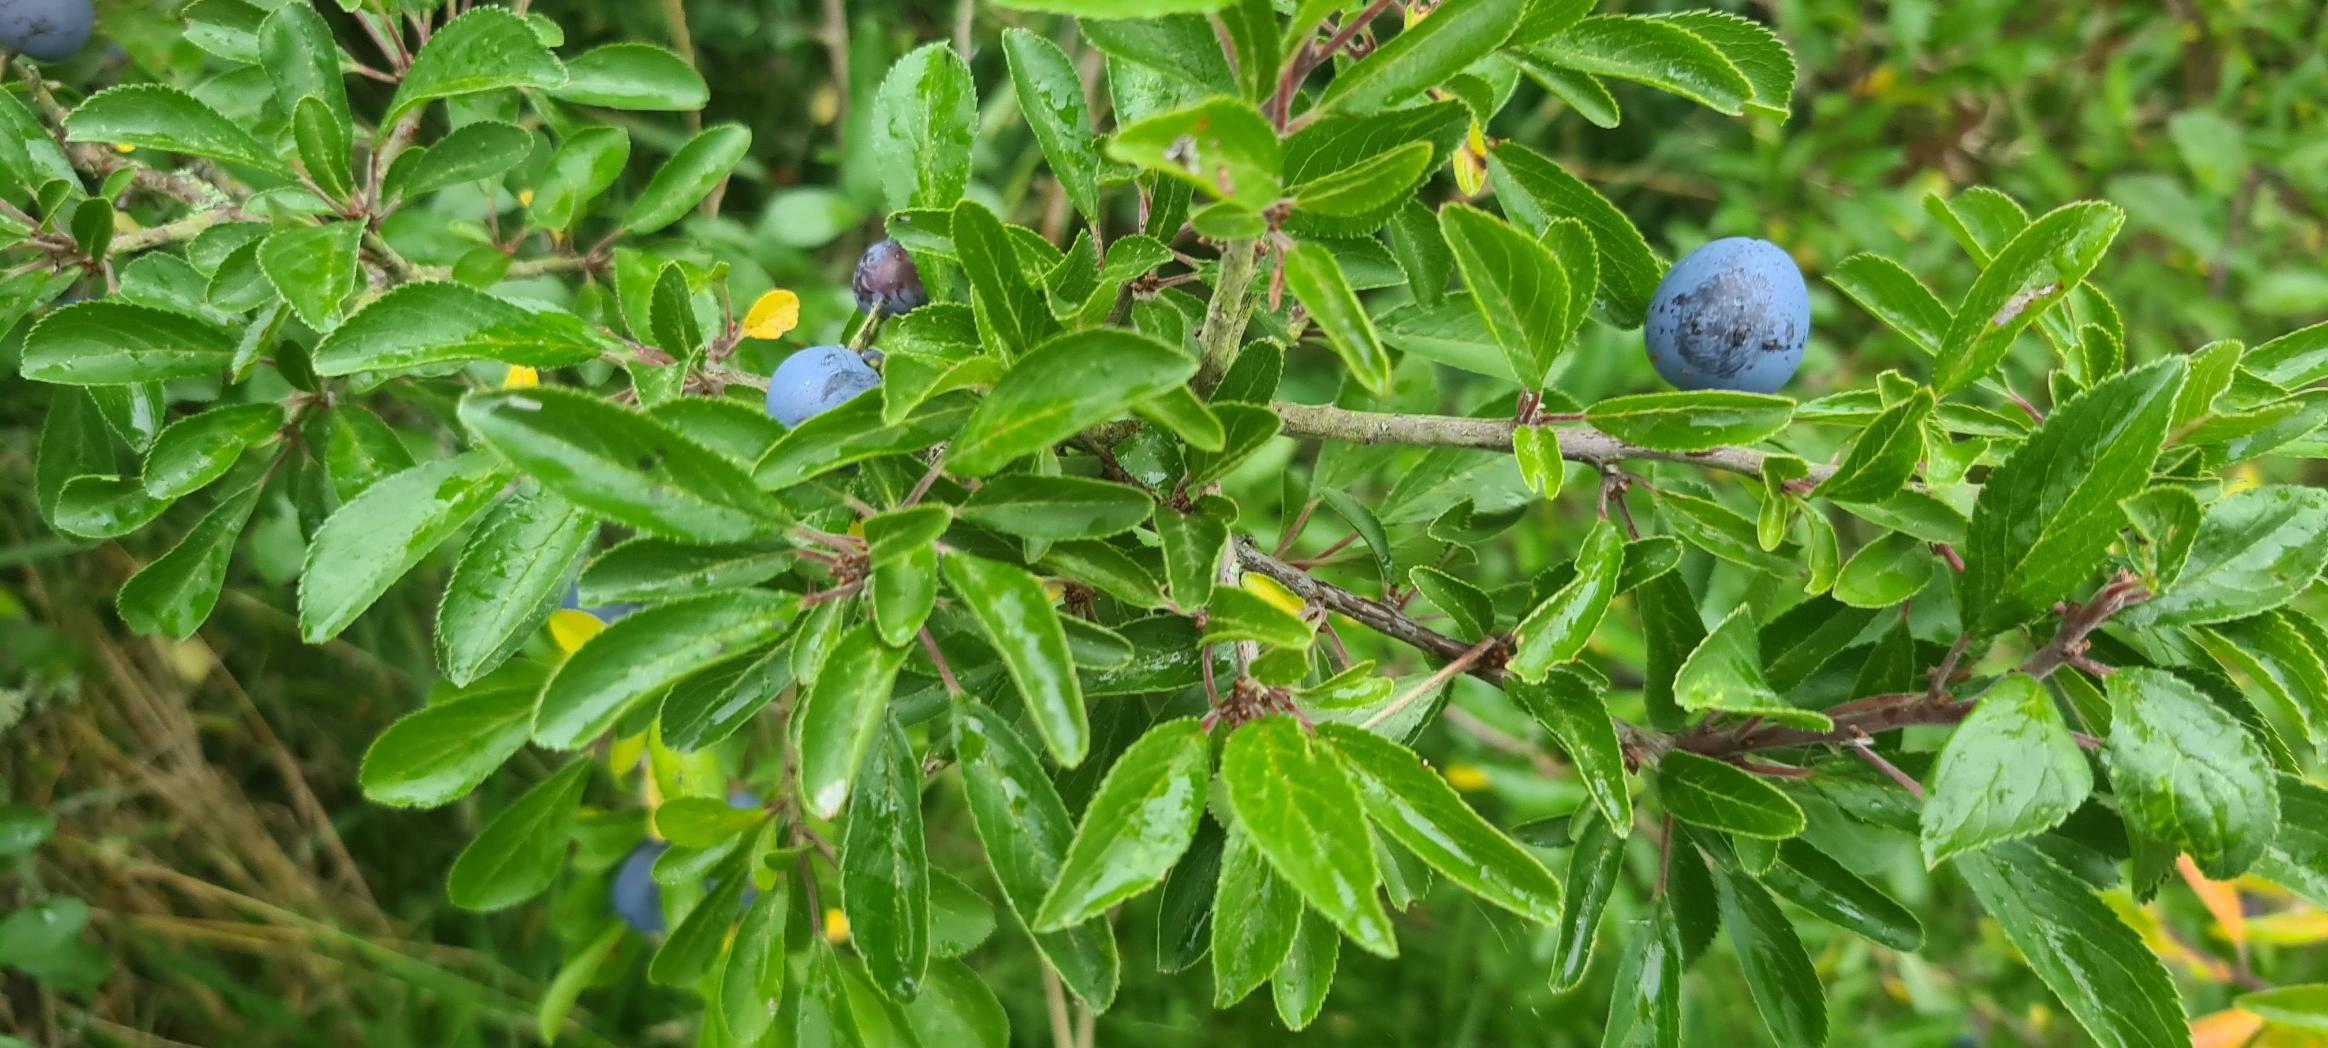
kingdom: Plantae
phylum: Tracheophyta
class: Magnoliopsida
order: Rosales
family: Rosaceae
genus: Prunus
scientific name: Prunus spinosa
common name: Slåen
